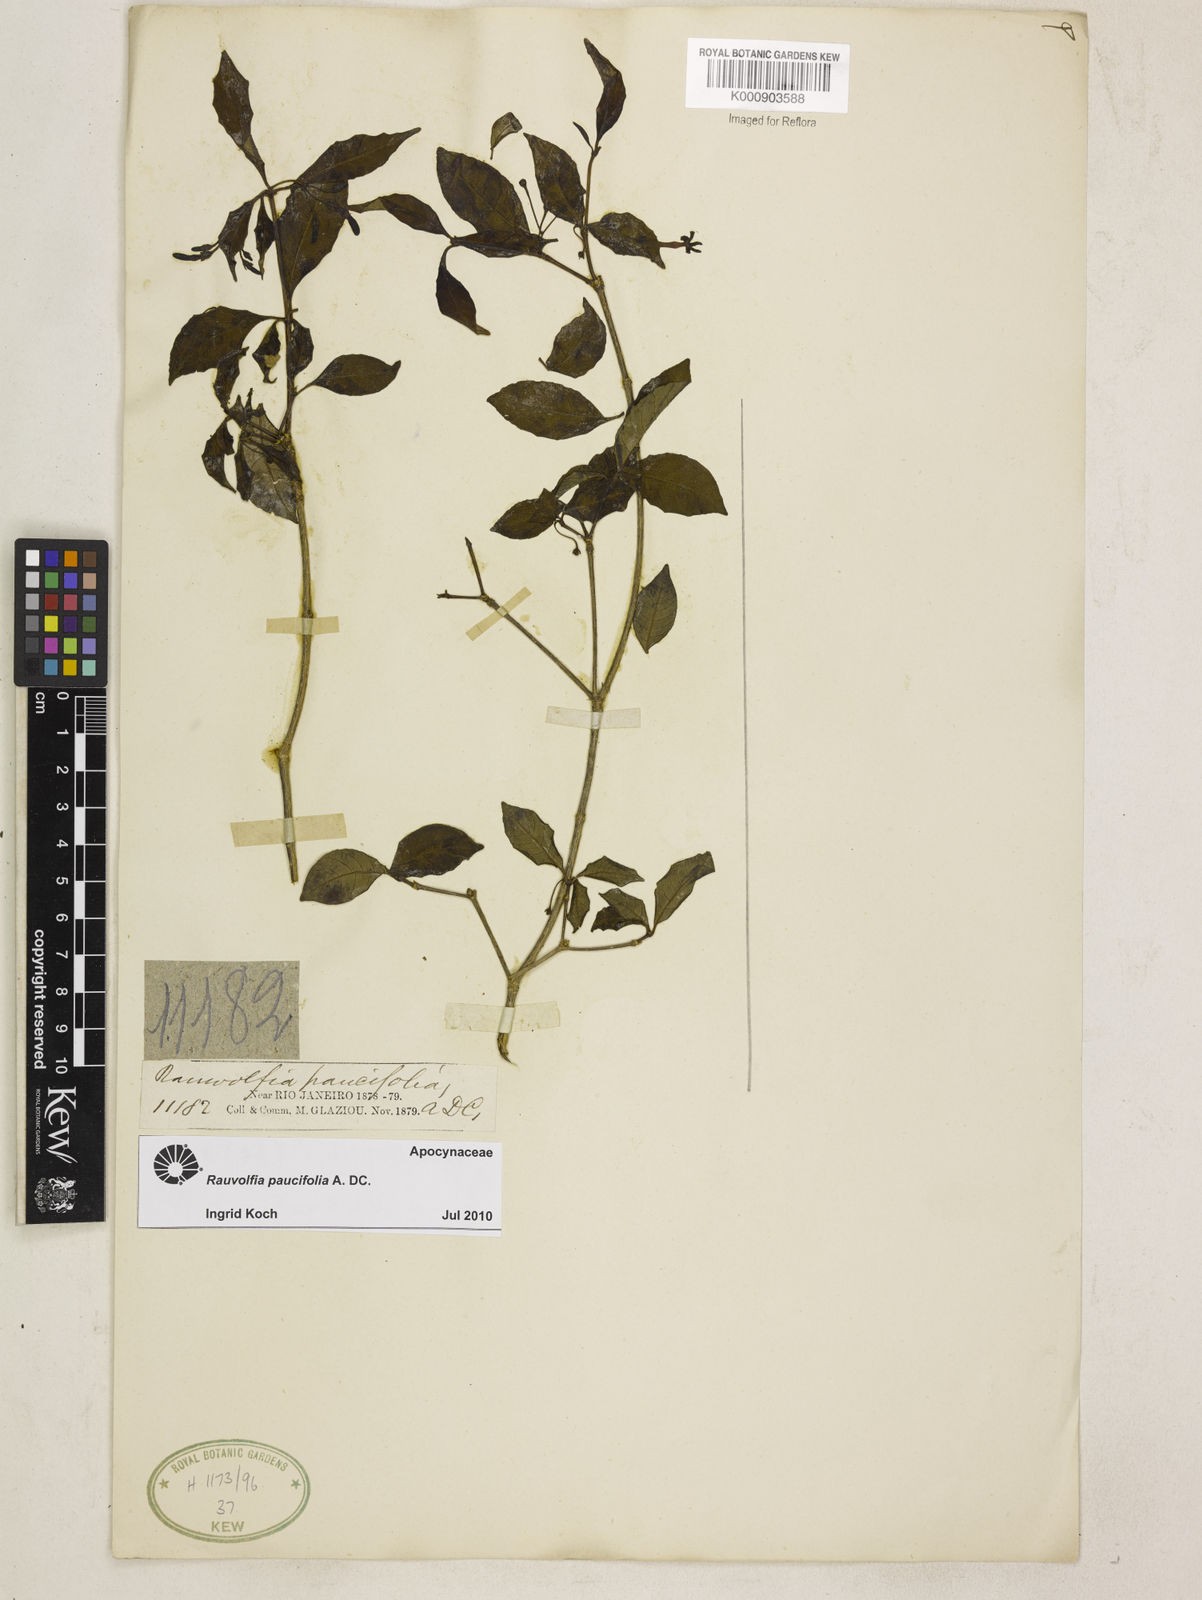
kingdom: Plantae
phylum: Tracheophyta
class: Magnoliopsida
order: Gentianales
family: Apocynaceae
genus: Rauvolfia
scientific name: Rauvolfia paucifolia
